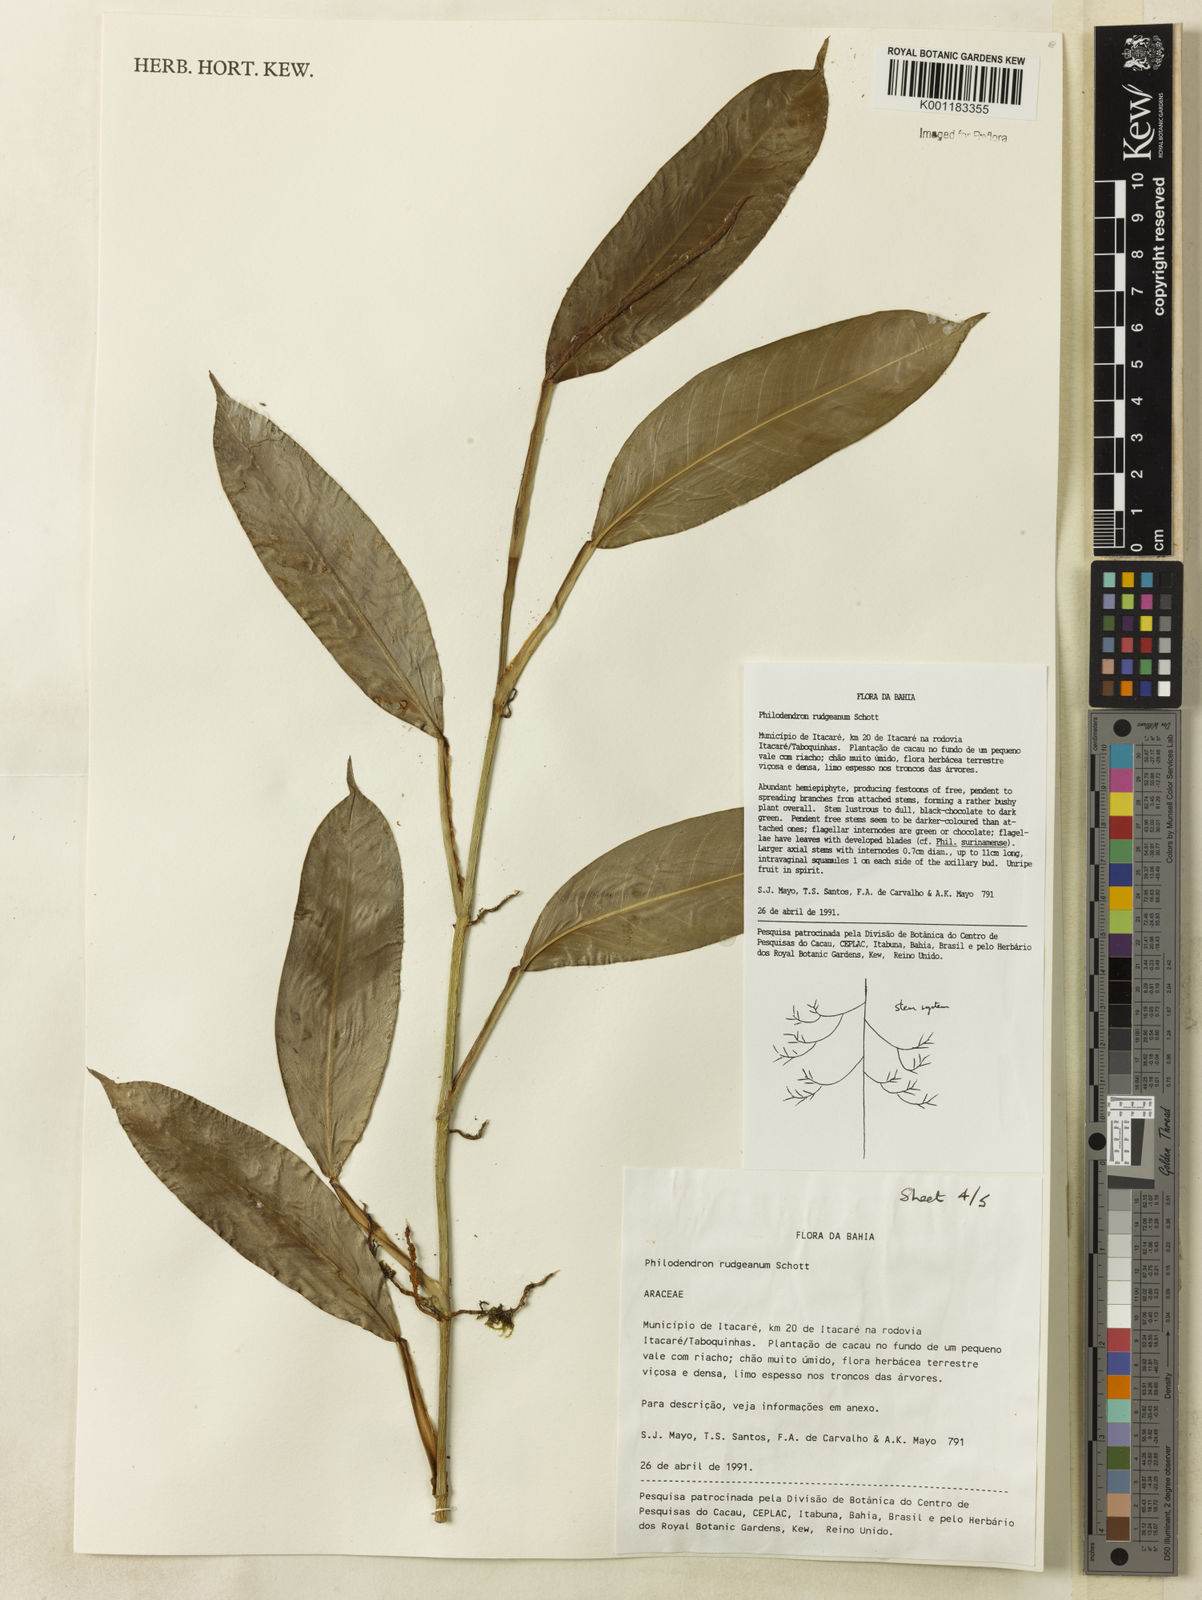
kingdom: Plantae
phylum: Tracheophyta
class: Liliopsida
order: Alismatales
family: Araceae
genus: Philodendron
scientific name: Philodendron rudgeanum
